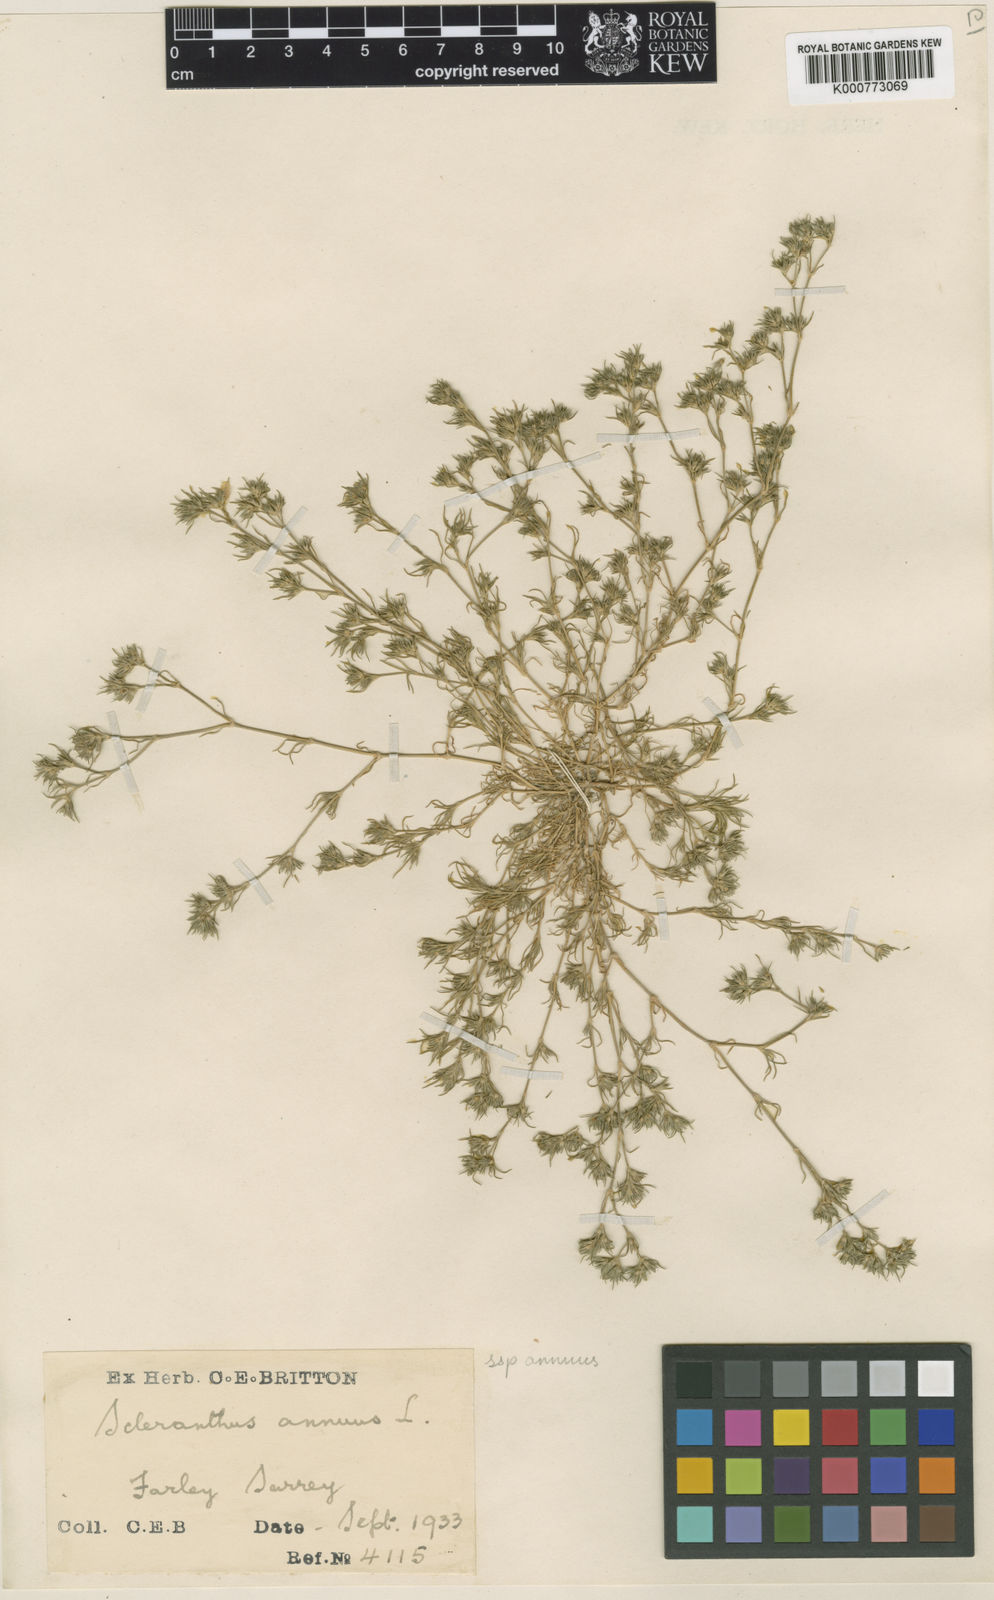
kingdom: Plantae
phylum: Tracheophyta
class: Magnoliopsida
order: Caryophyllales
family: Caryophyllaceae
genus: Scleranthus
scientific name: Scleranthus annuus
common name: Annual knawel
